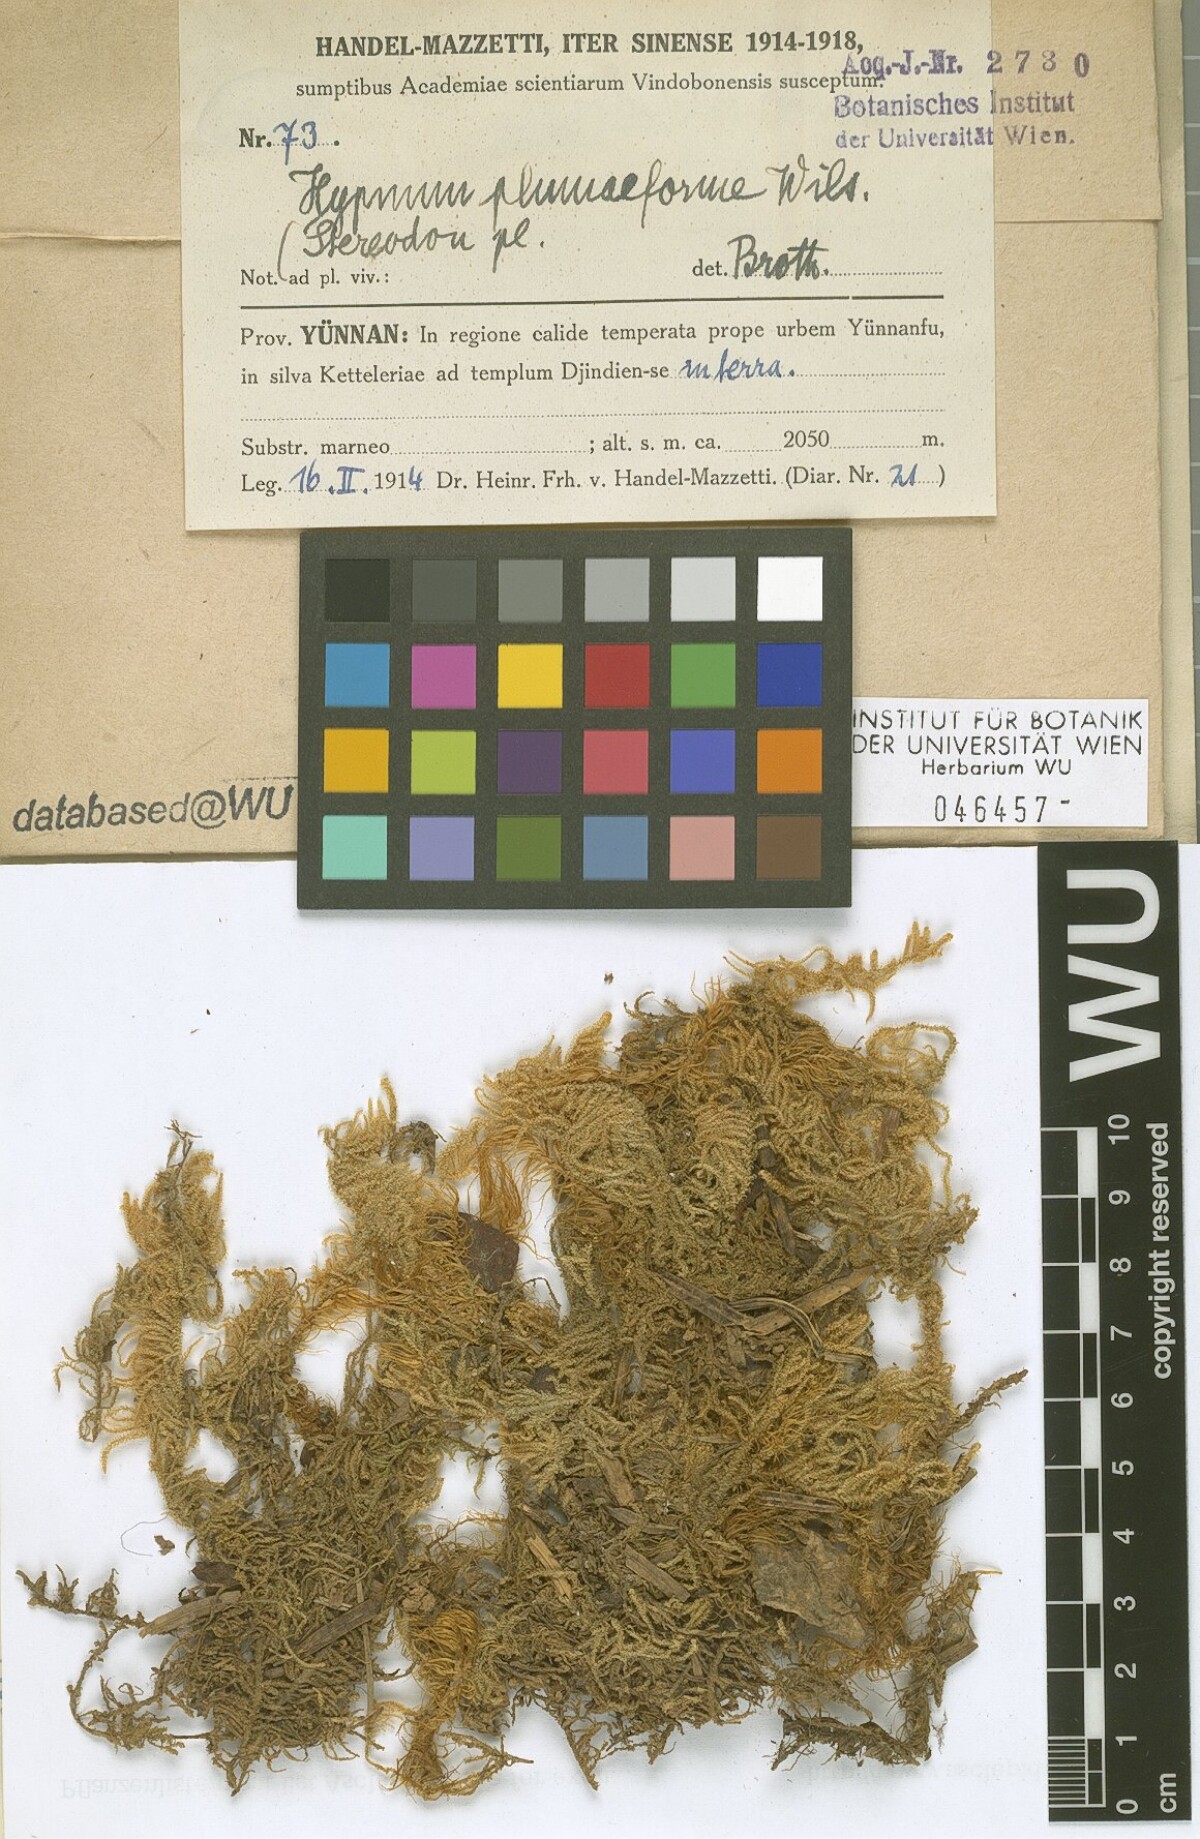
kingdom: Plantae
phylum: Bryophyta
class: Bryopsida
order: Hypnales
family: Hypnaceae
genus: Hypnum
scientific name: Hypnum plumaeforme
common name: Cypress-leaved plaitmoss
